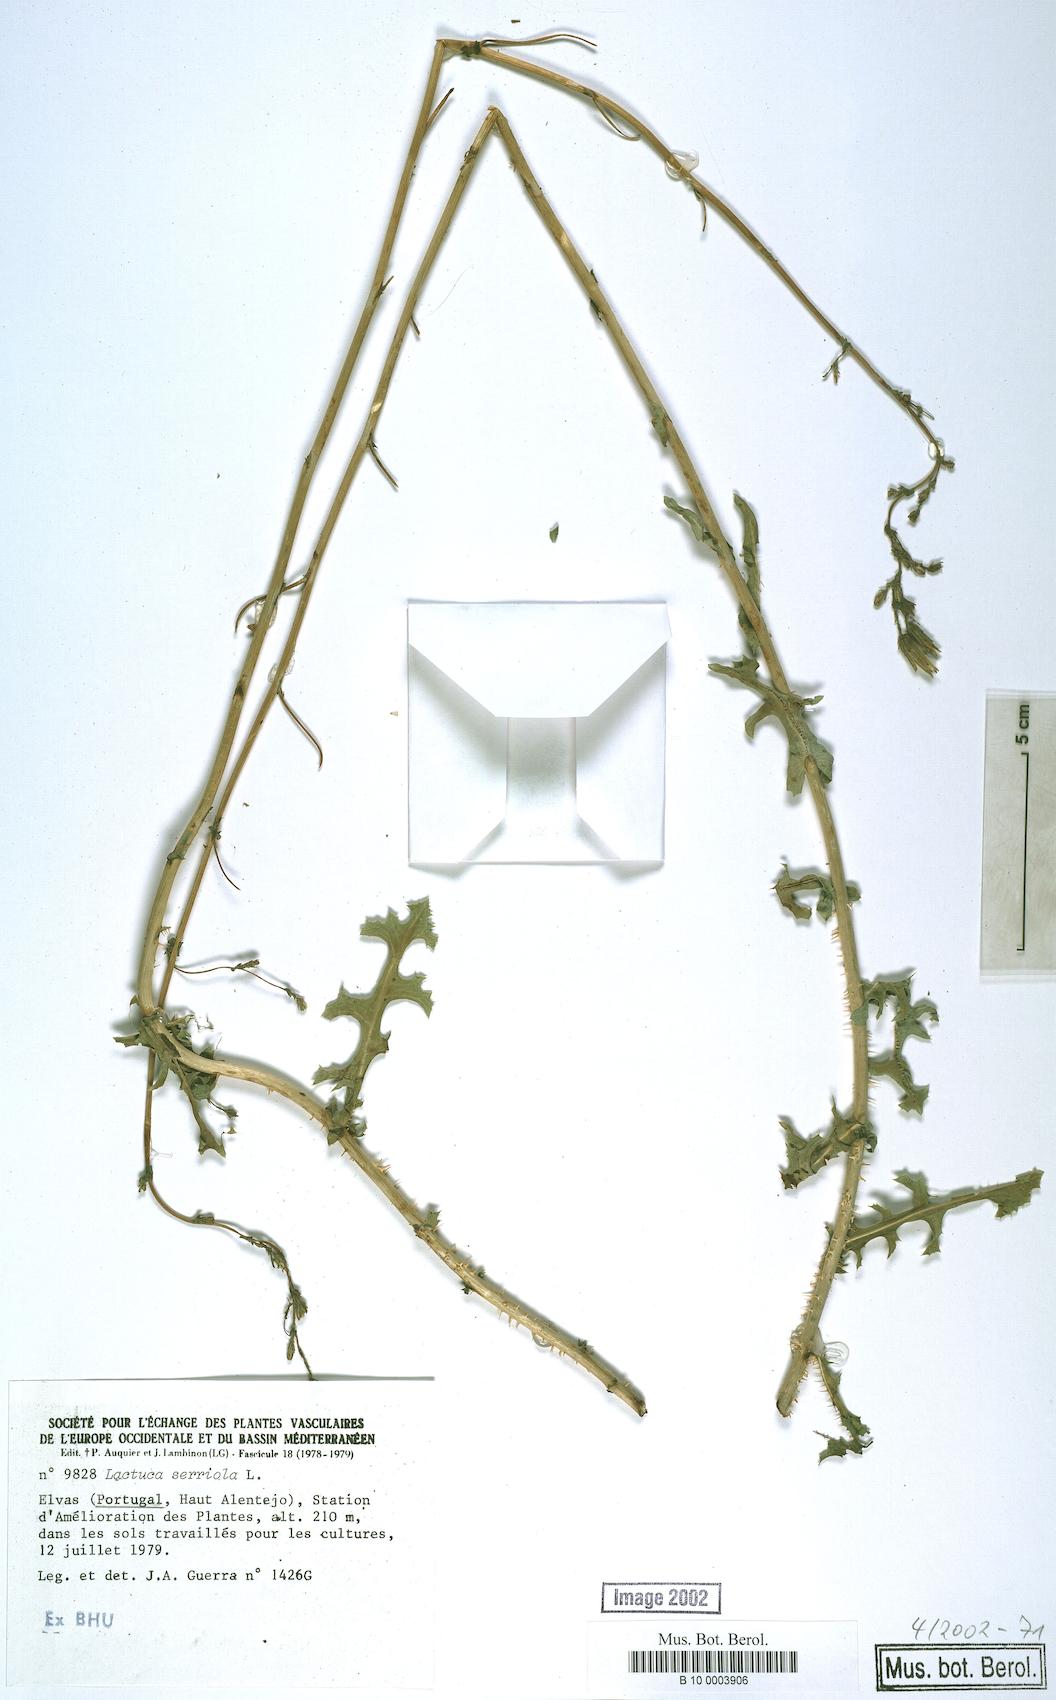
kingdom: Plantae
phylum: Tracheophyta
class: Magnoliopsida
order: Asterales
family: Asteraceae
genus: Lactuca
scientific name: Lactuca serriola
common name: Prickly lettuce
